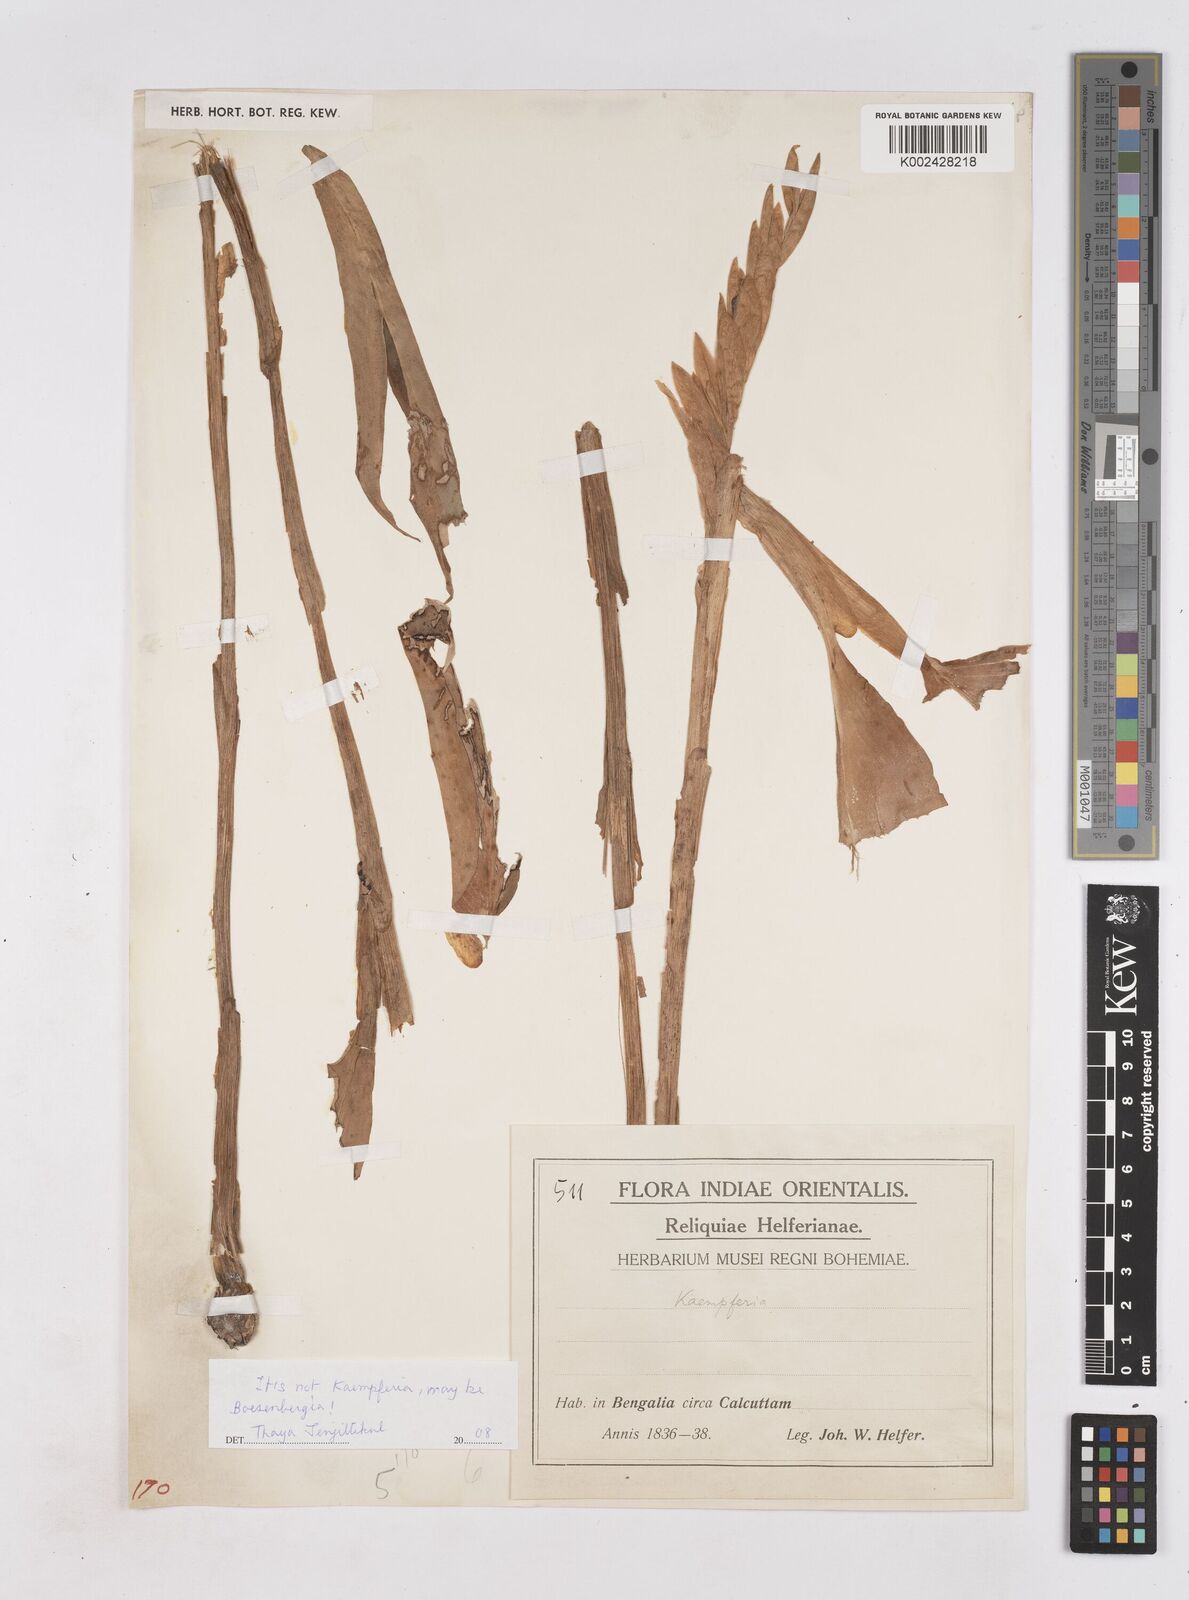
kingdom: Plantae
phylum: Tracheophyta
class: Liliopsida
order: Zingiberales
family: Zingiberaceae
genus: Boesenbergia
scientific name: Boesenbergia
